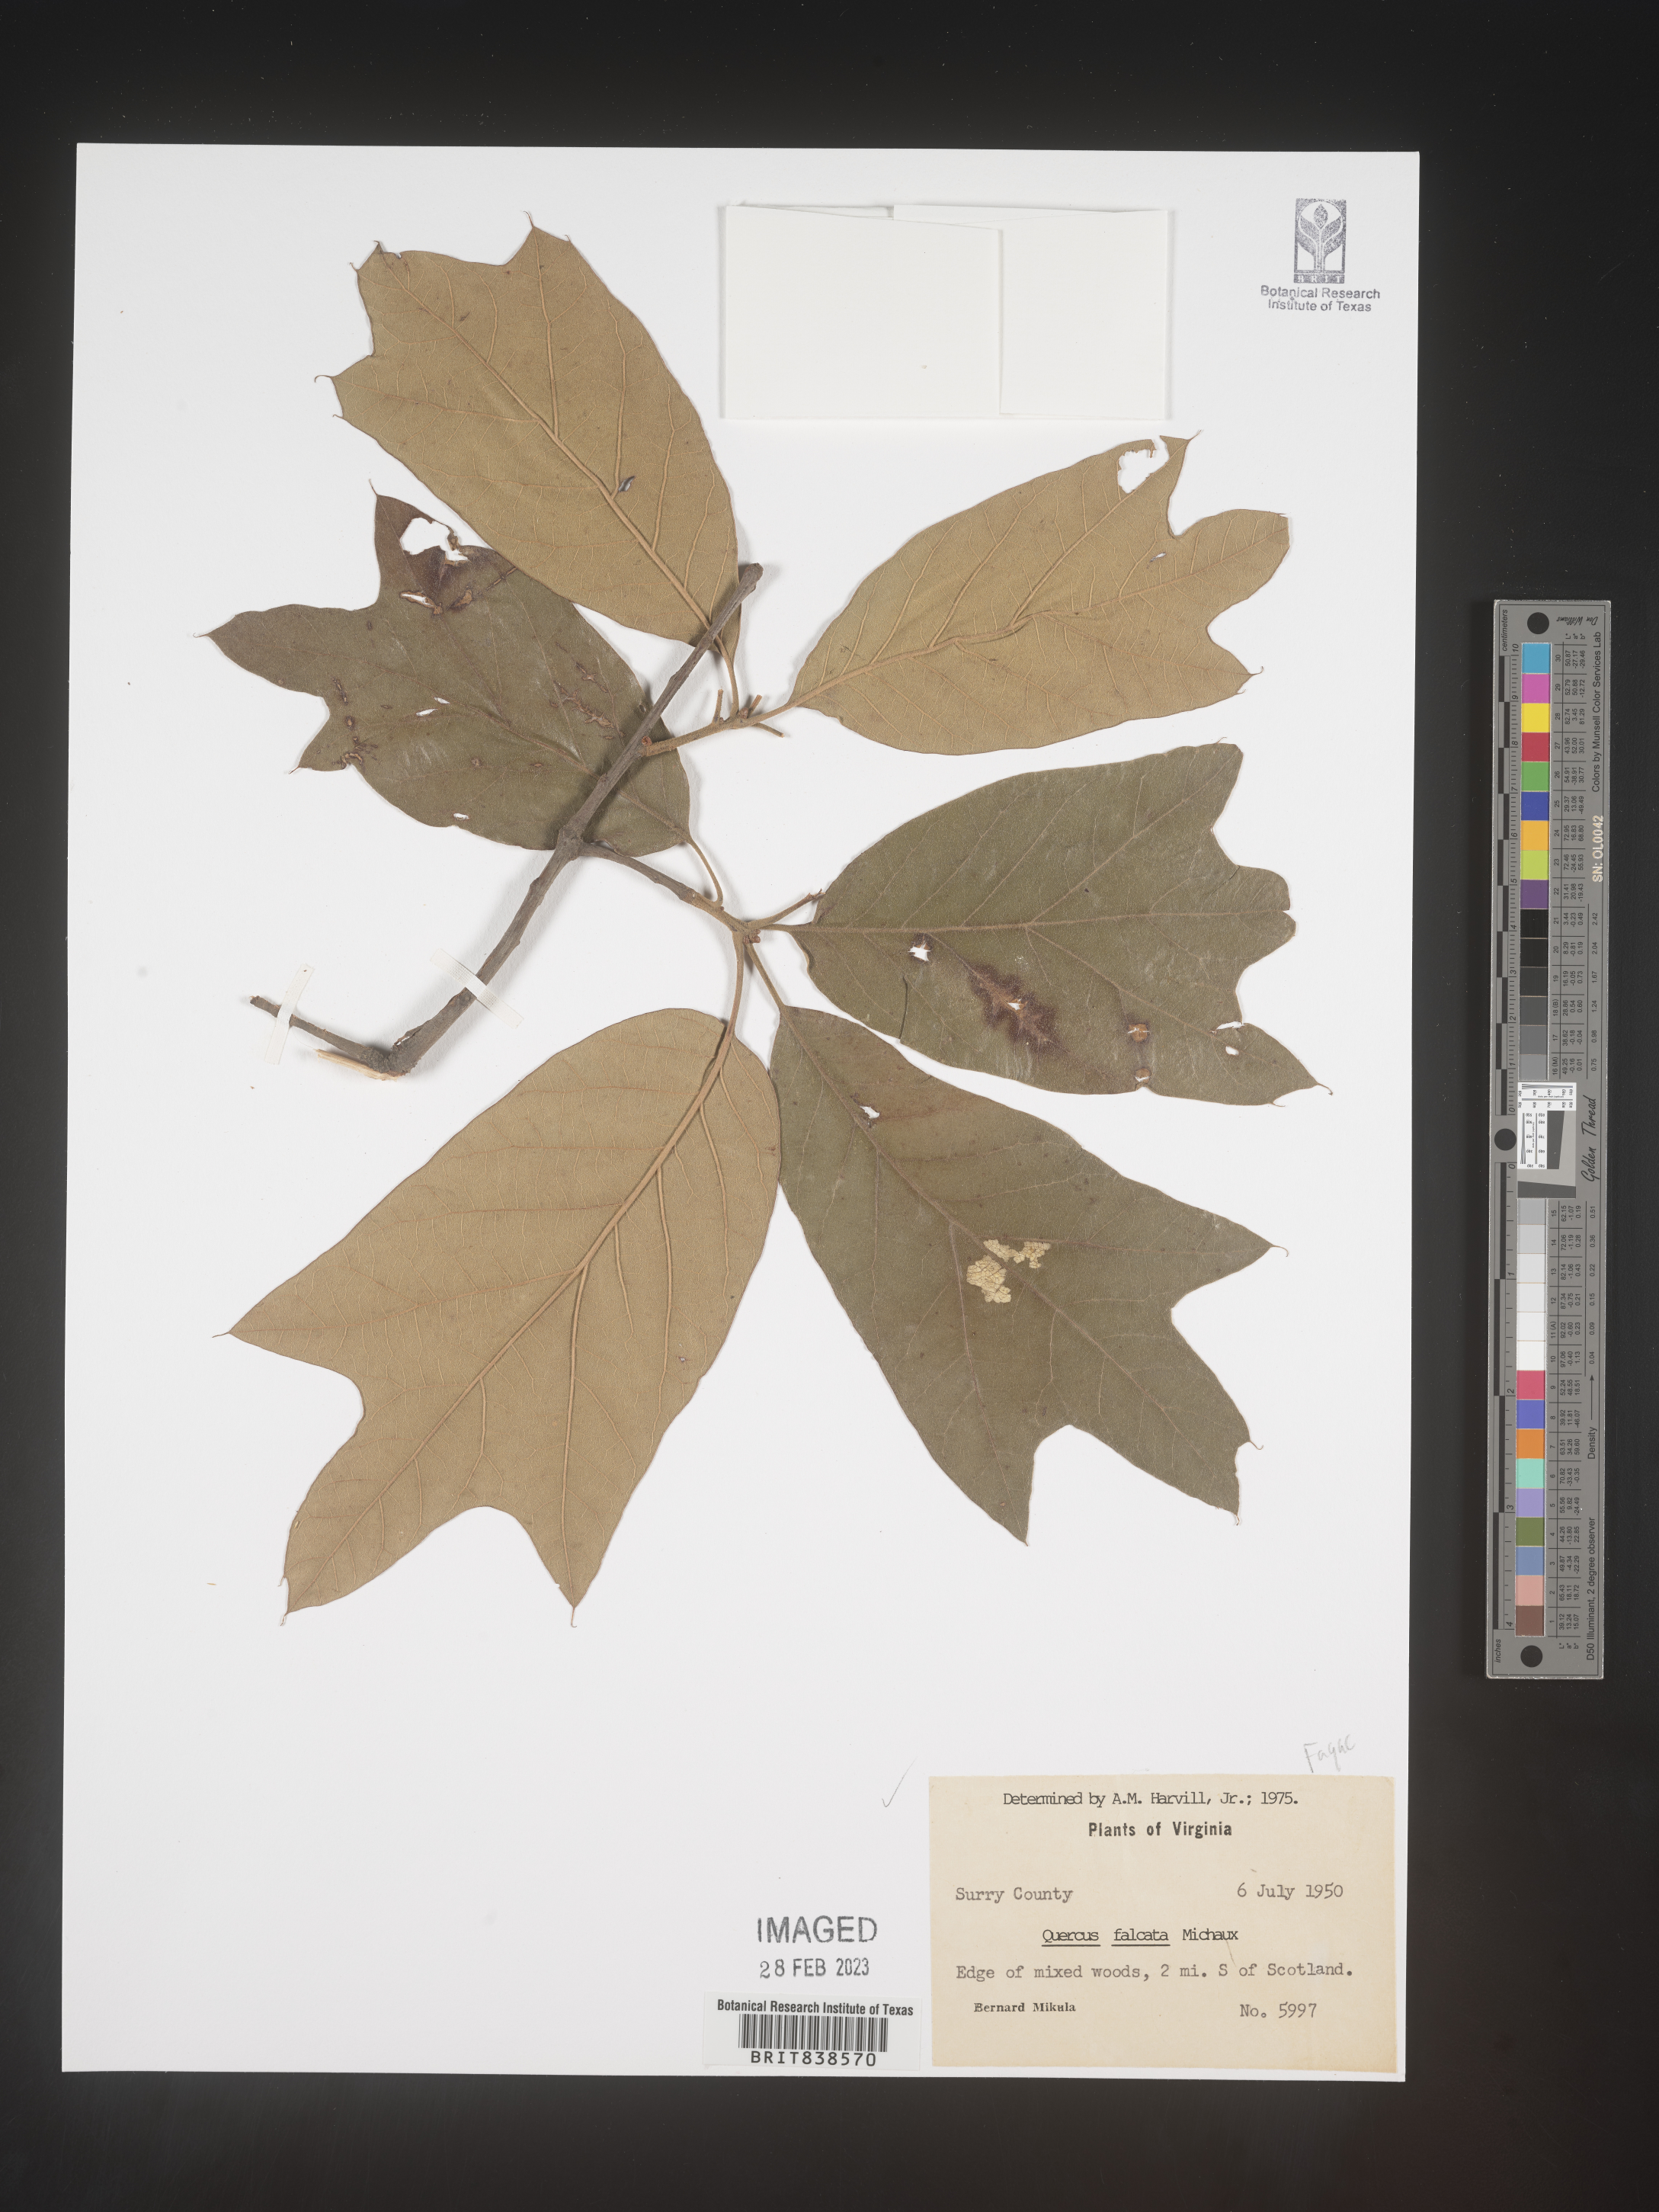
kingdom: Plantae
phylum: Tracheophyta
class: Magnoliopsida
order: Fagales
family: Fagaceae
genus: Quercus
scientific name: Quercus falcata
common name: Southern red oak
